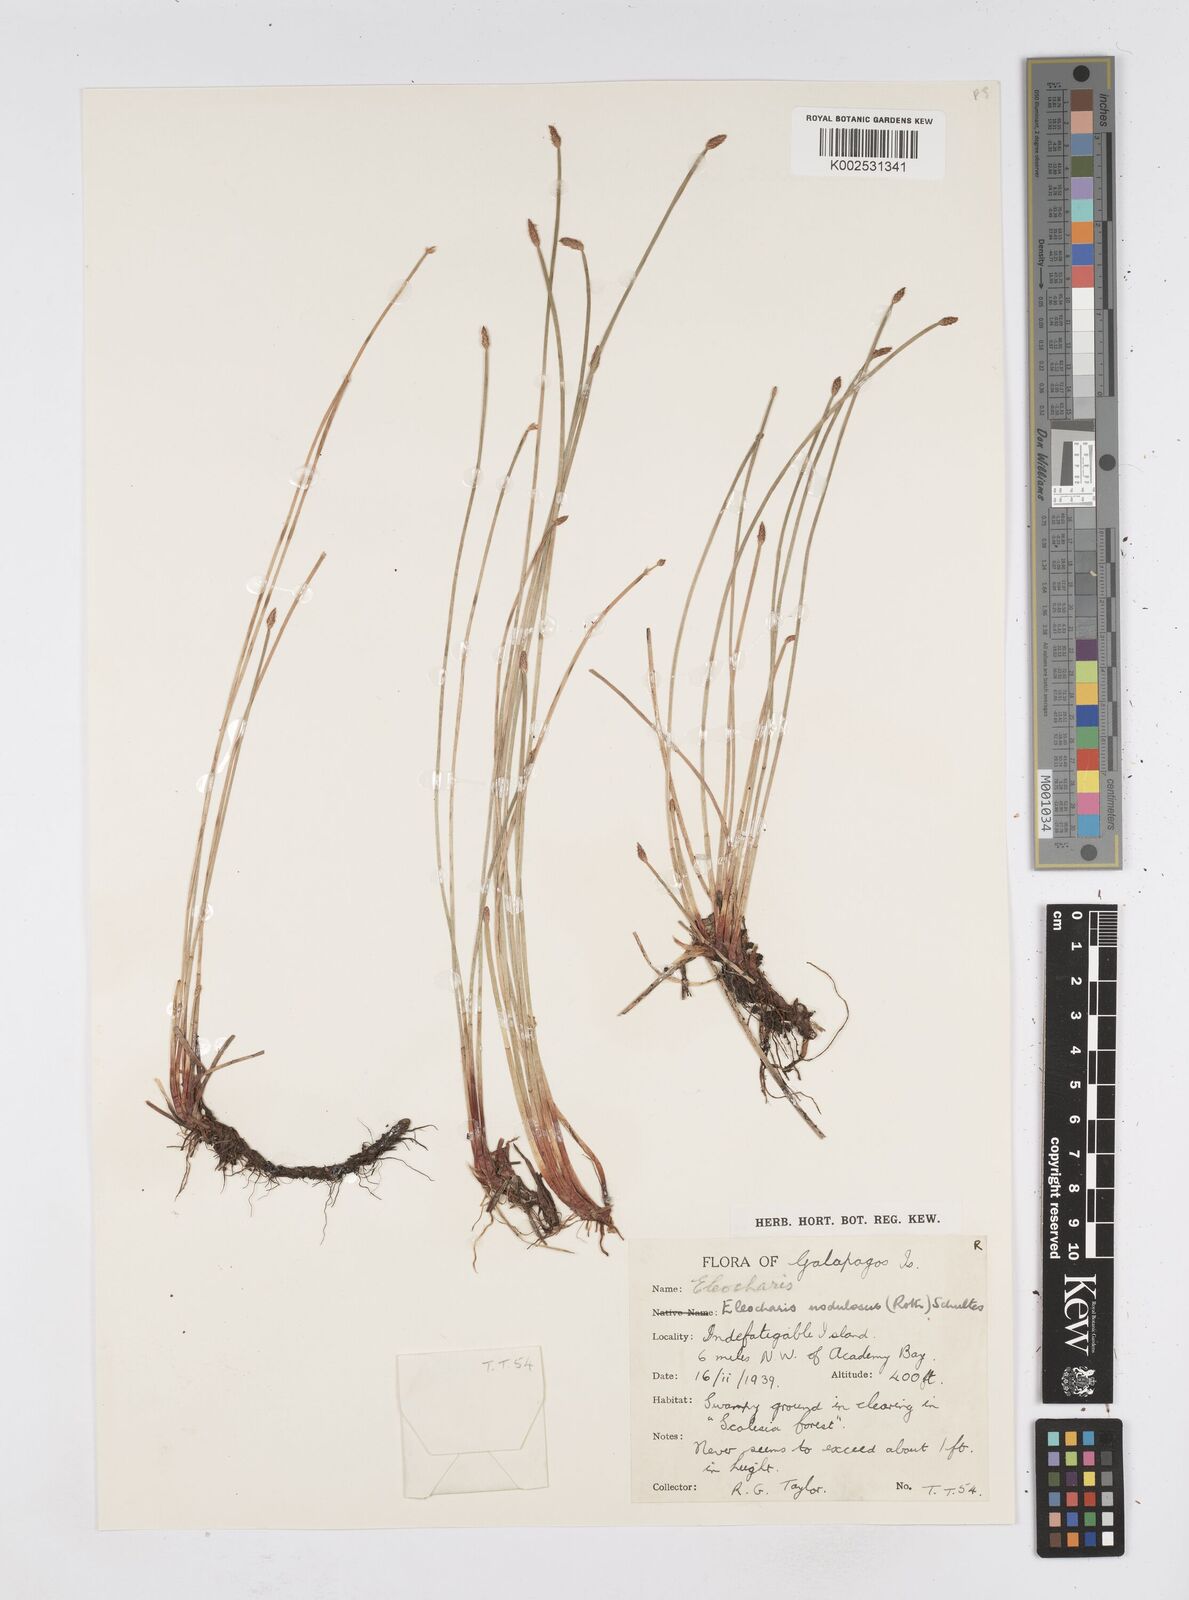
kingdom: Plantae
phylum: Tracheophyta
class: Liliopsida
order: Poales
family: Cyperaceae
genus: Eleocharis
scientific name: Eleocharis
